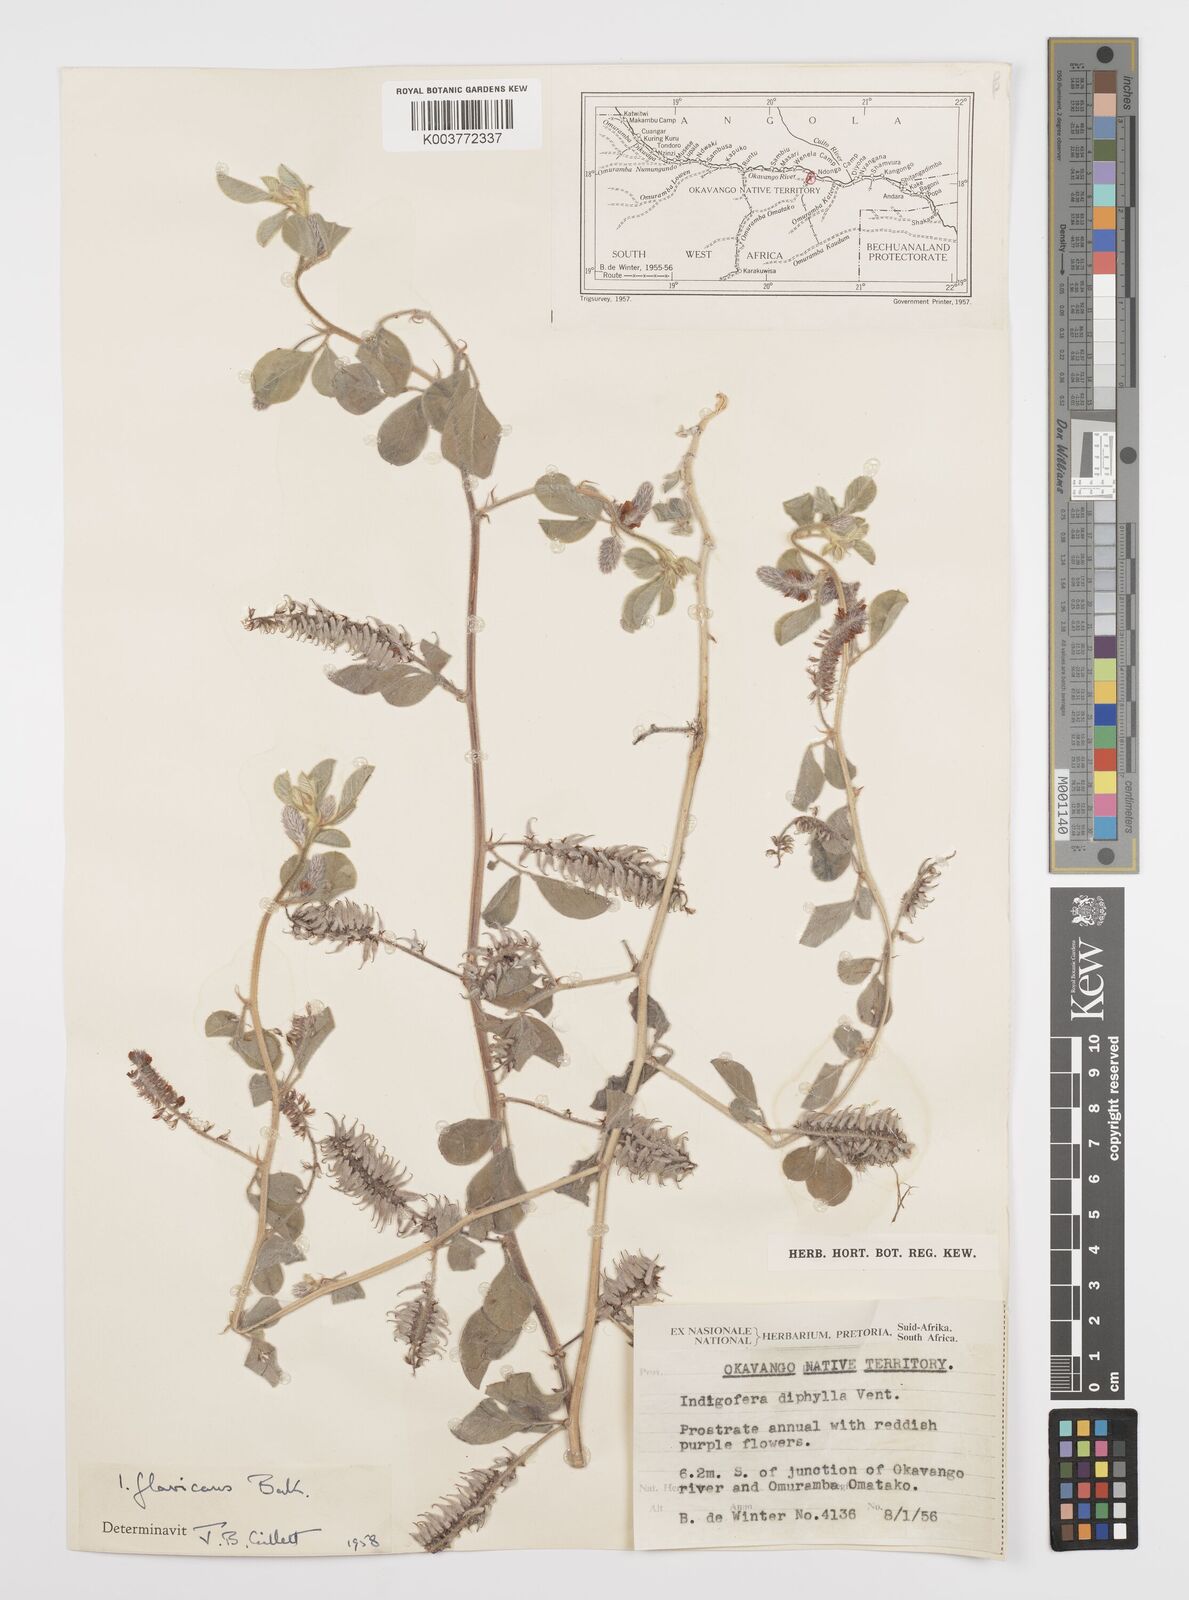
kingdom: Plantae
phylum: Tracheophyta
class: Magnoliopsida
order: Fabales
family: Fabaceae
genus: Indigofera
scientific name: Indigofera flavicans
